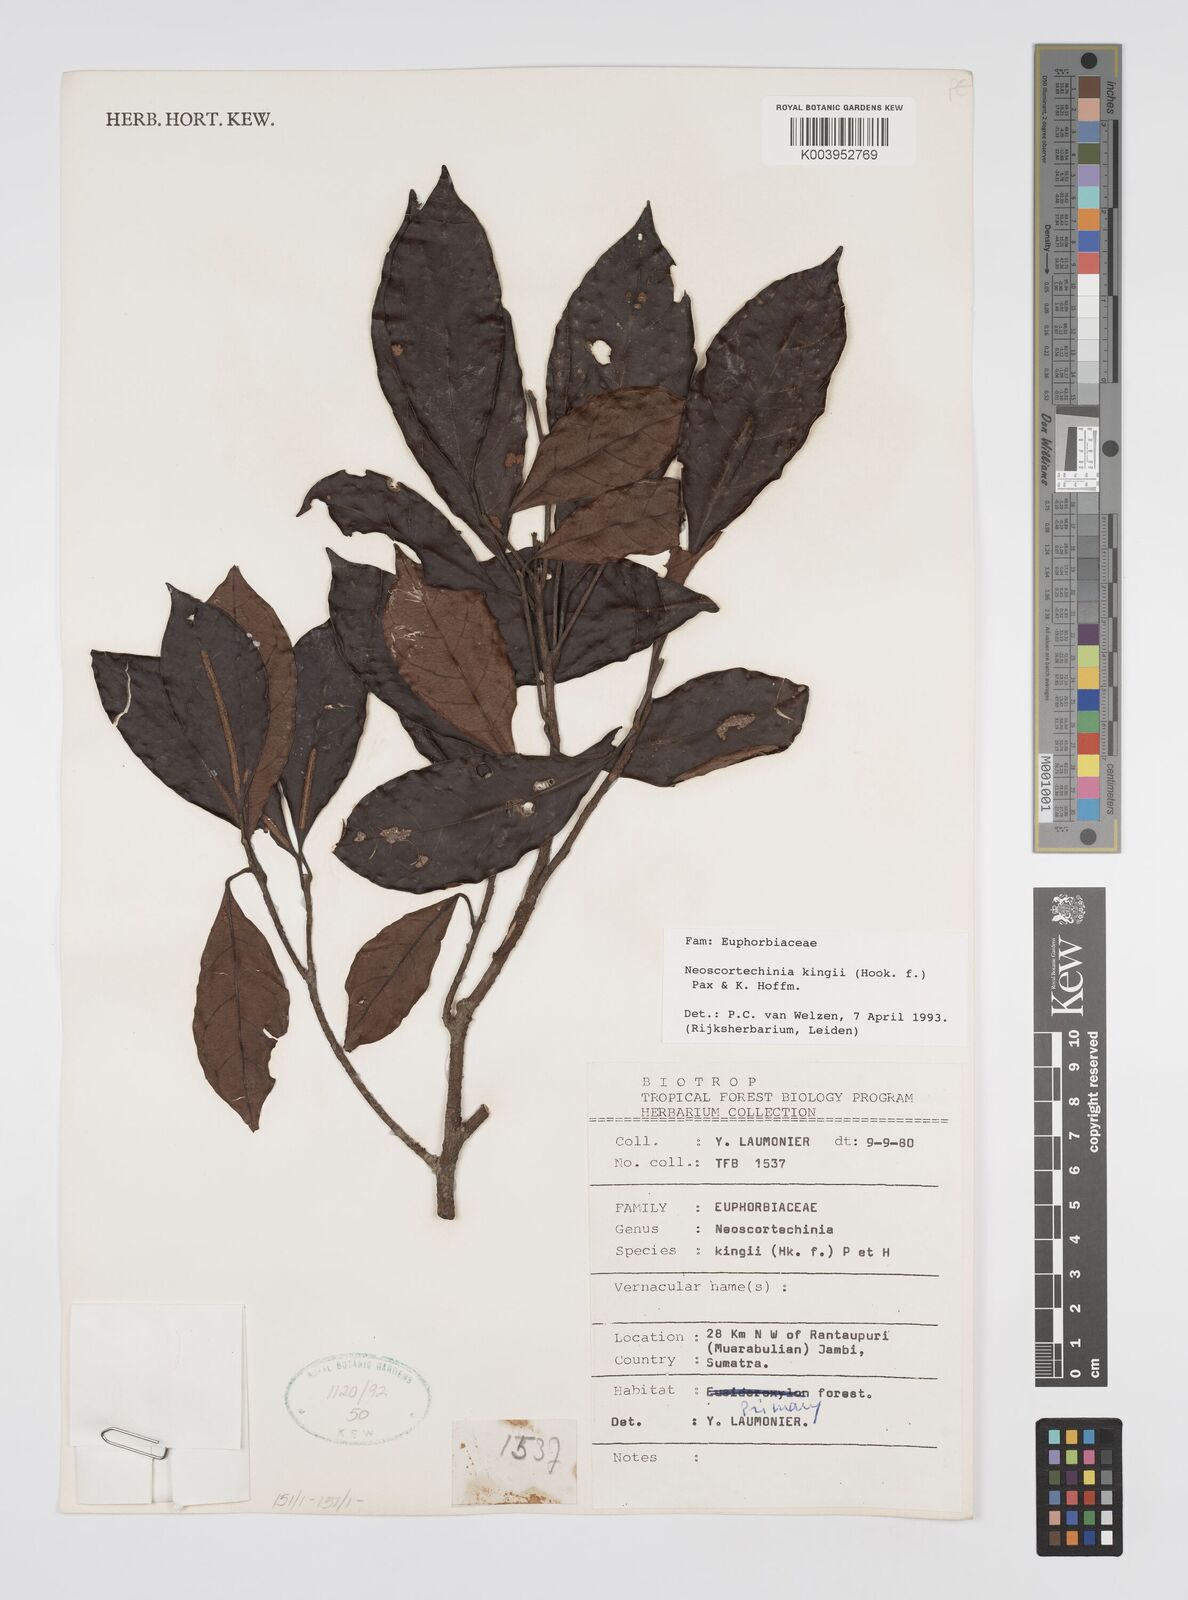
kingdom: Plantae
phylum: Tracheophyta
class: Magnoliopsida
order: Malpighiales
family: Euphorbiaceae
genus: Neoscortechinia
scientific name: Neoscortechinia kingii
